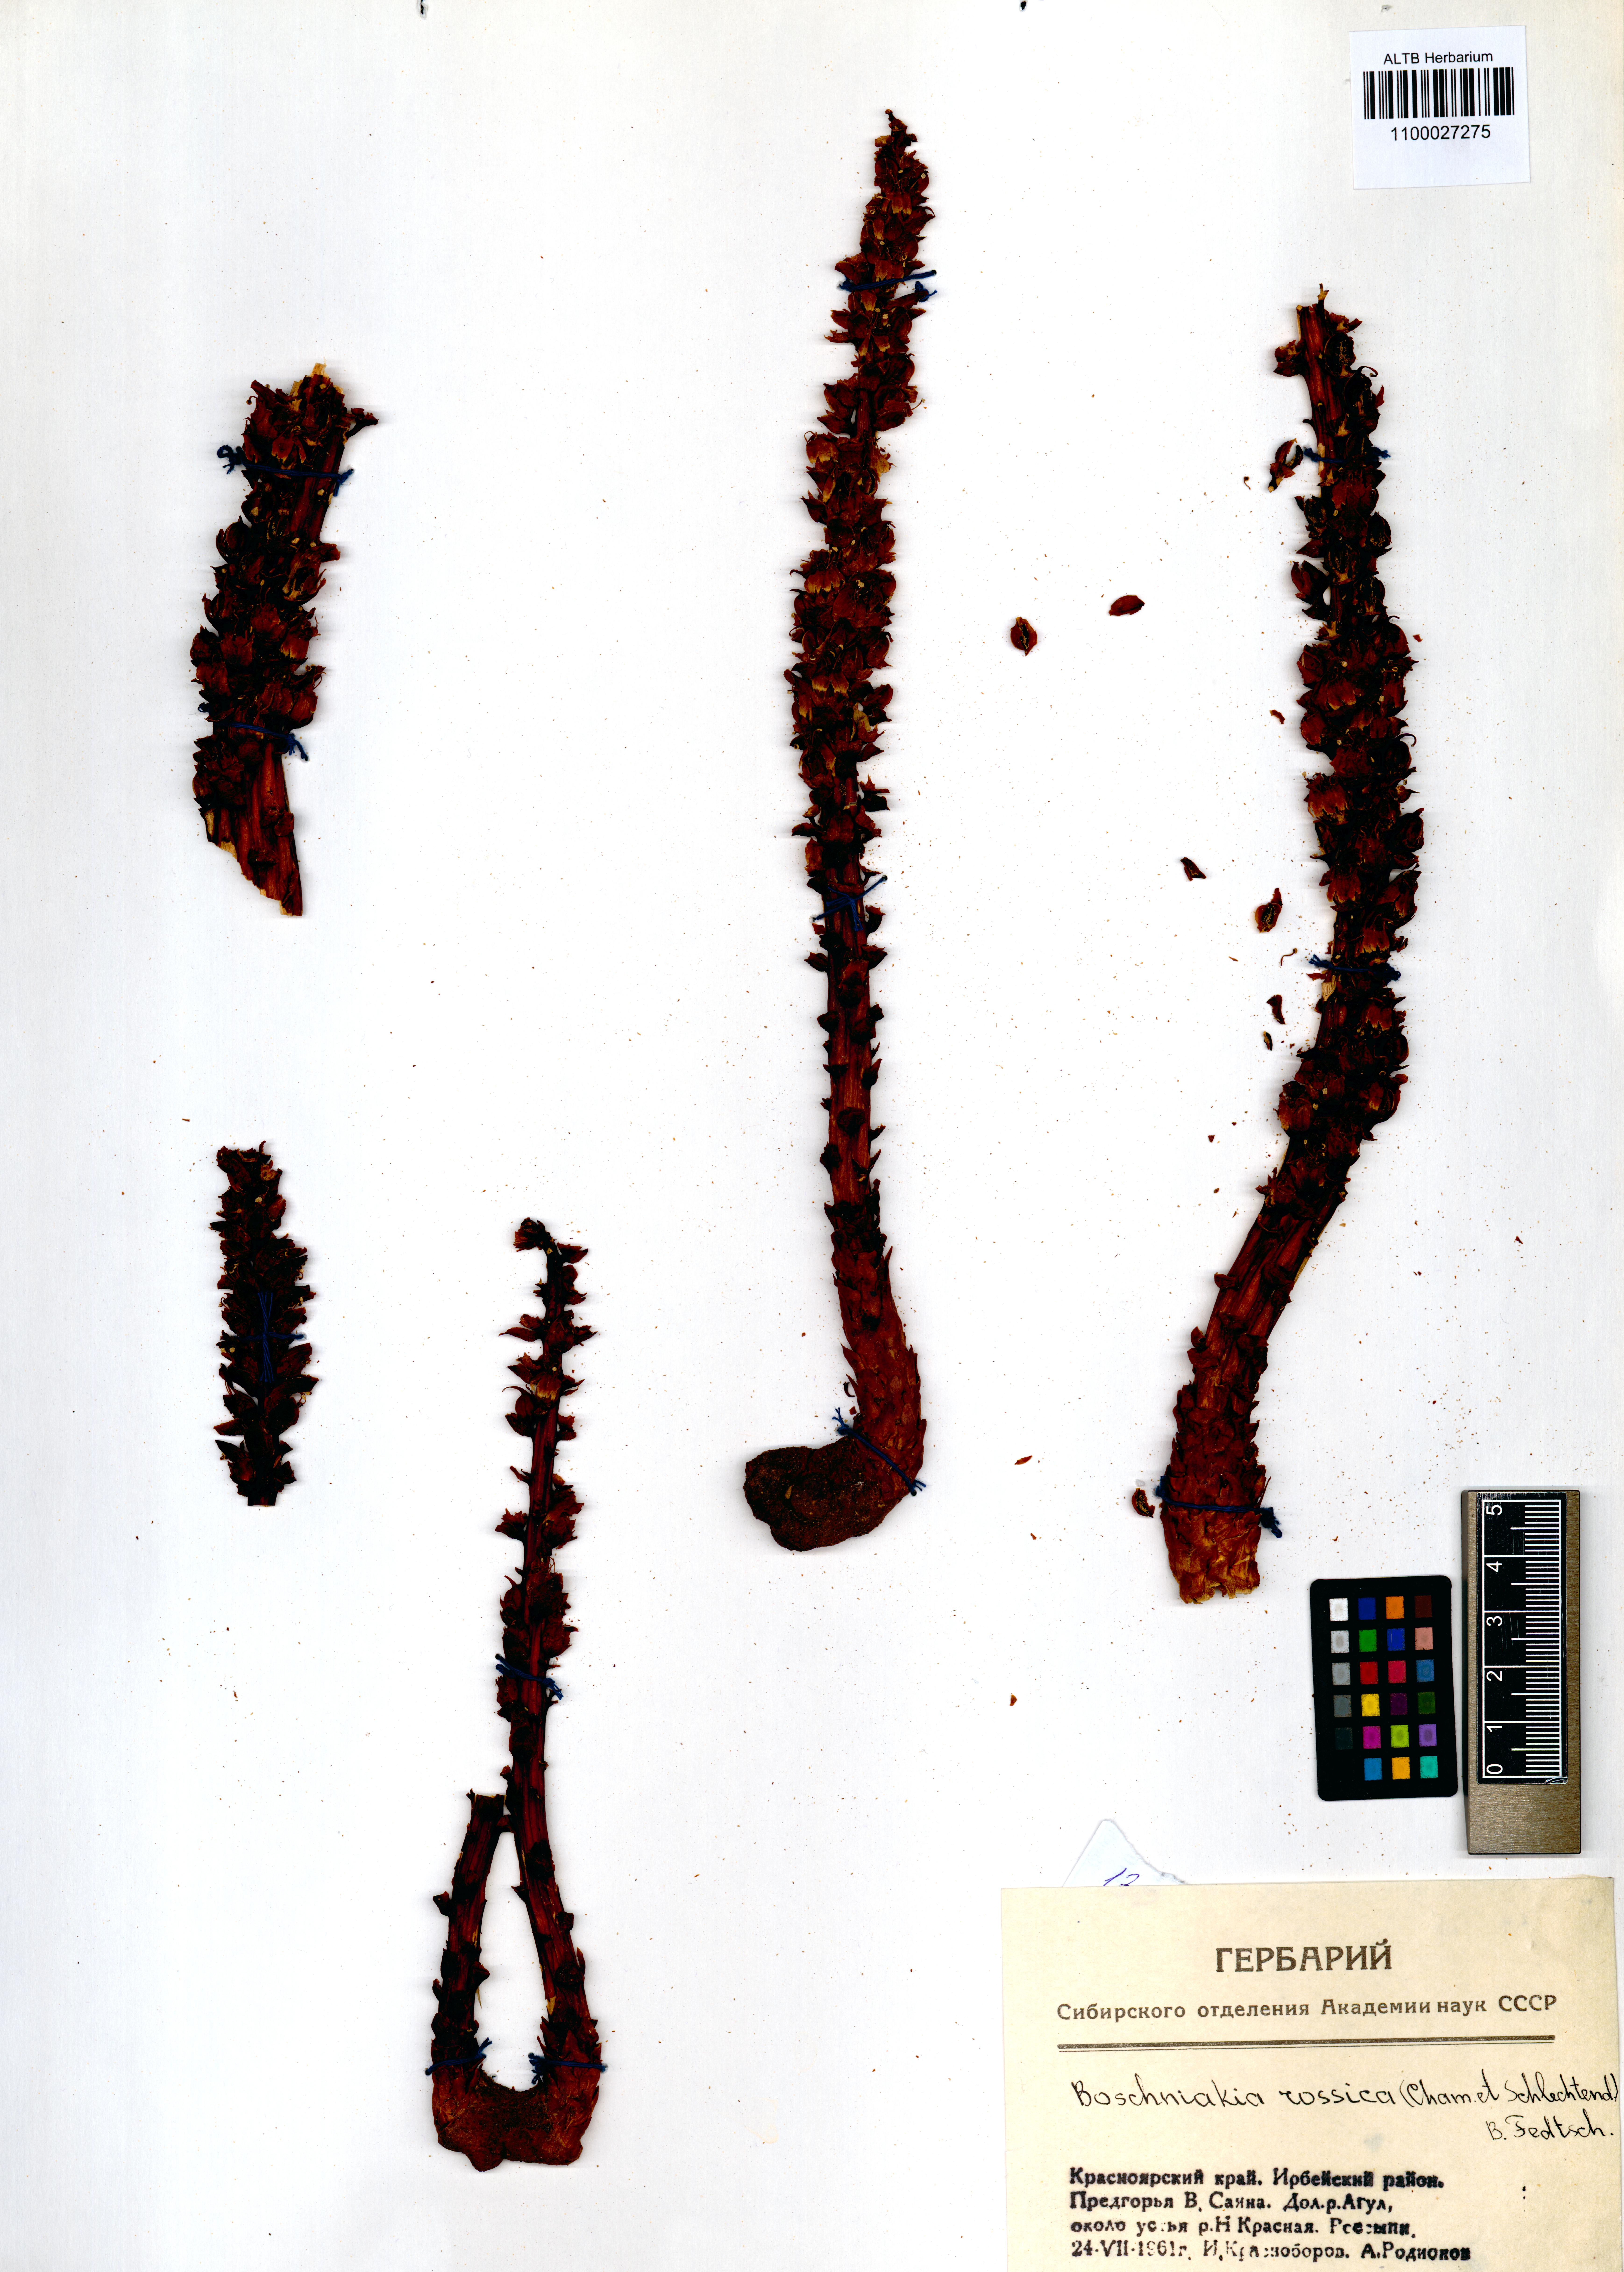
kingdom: Plantae
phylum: Tracheophyta
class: Magnoliopsida
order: Lamiales
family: Orobanchaceae
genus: Boschniakia
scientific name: Boschniakia rossica
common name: Poque
